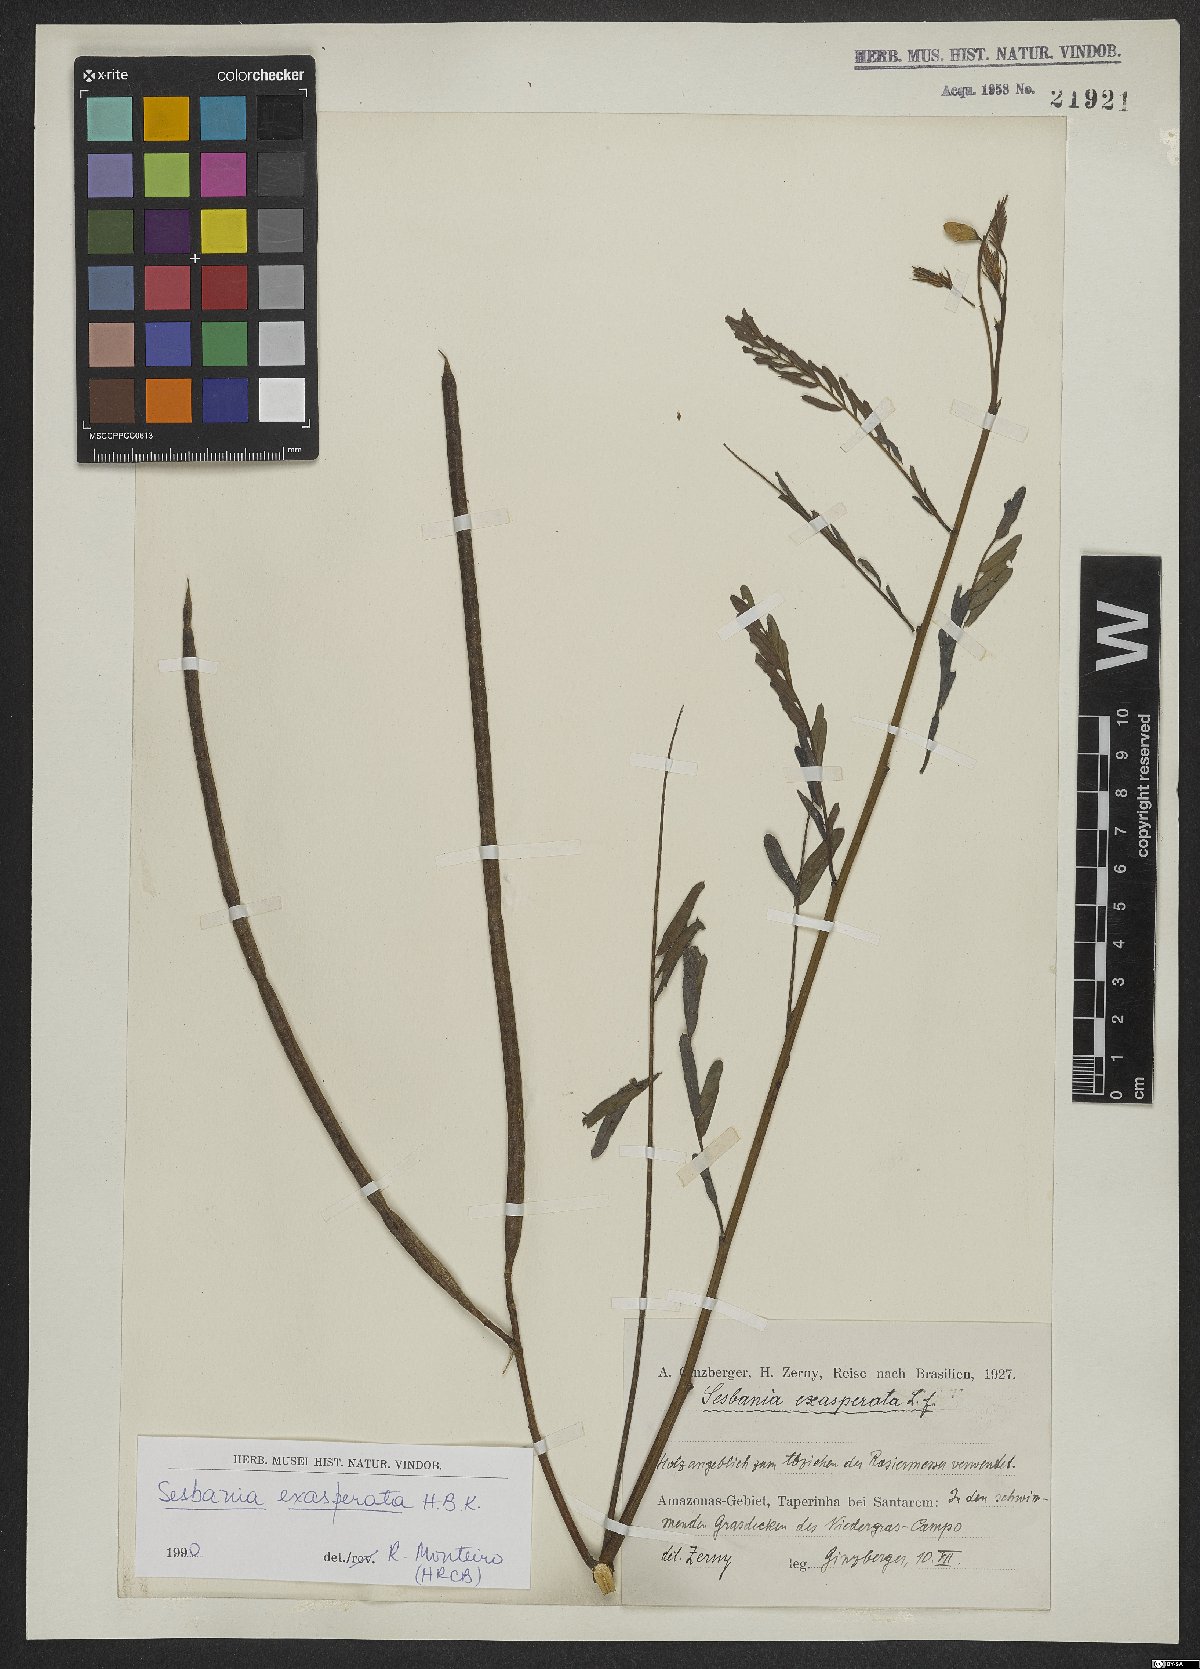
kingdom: Plantae
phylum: Tracheophyta
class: Magnoliopsida
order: Fabales
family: Fabaceae
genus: Sesbania
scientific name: Sesbania exasperata
